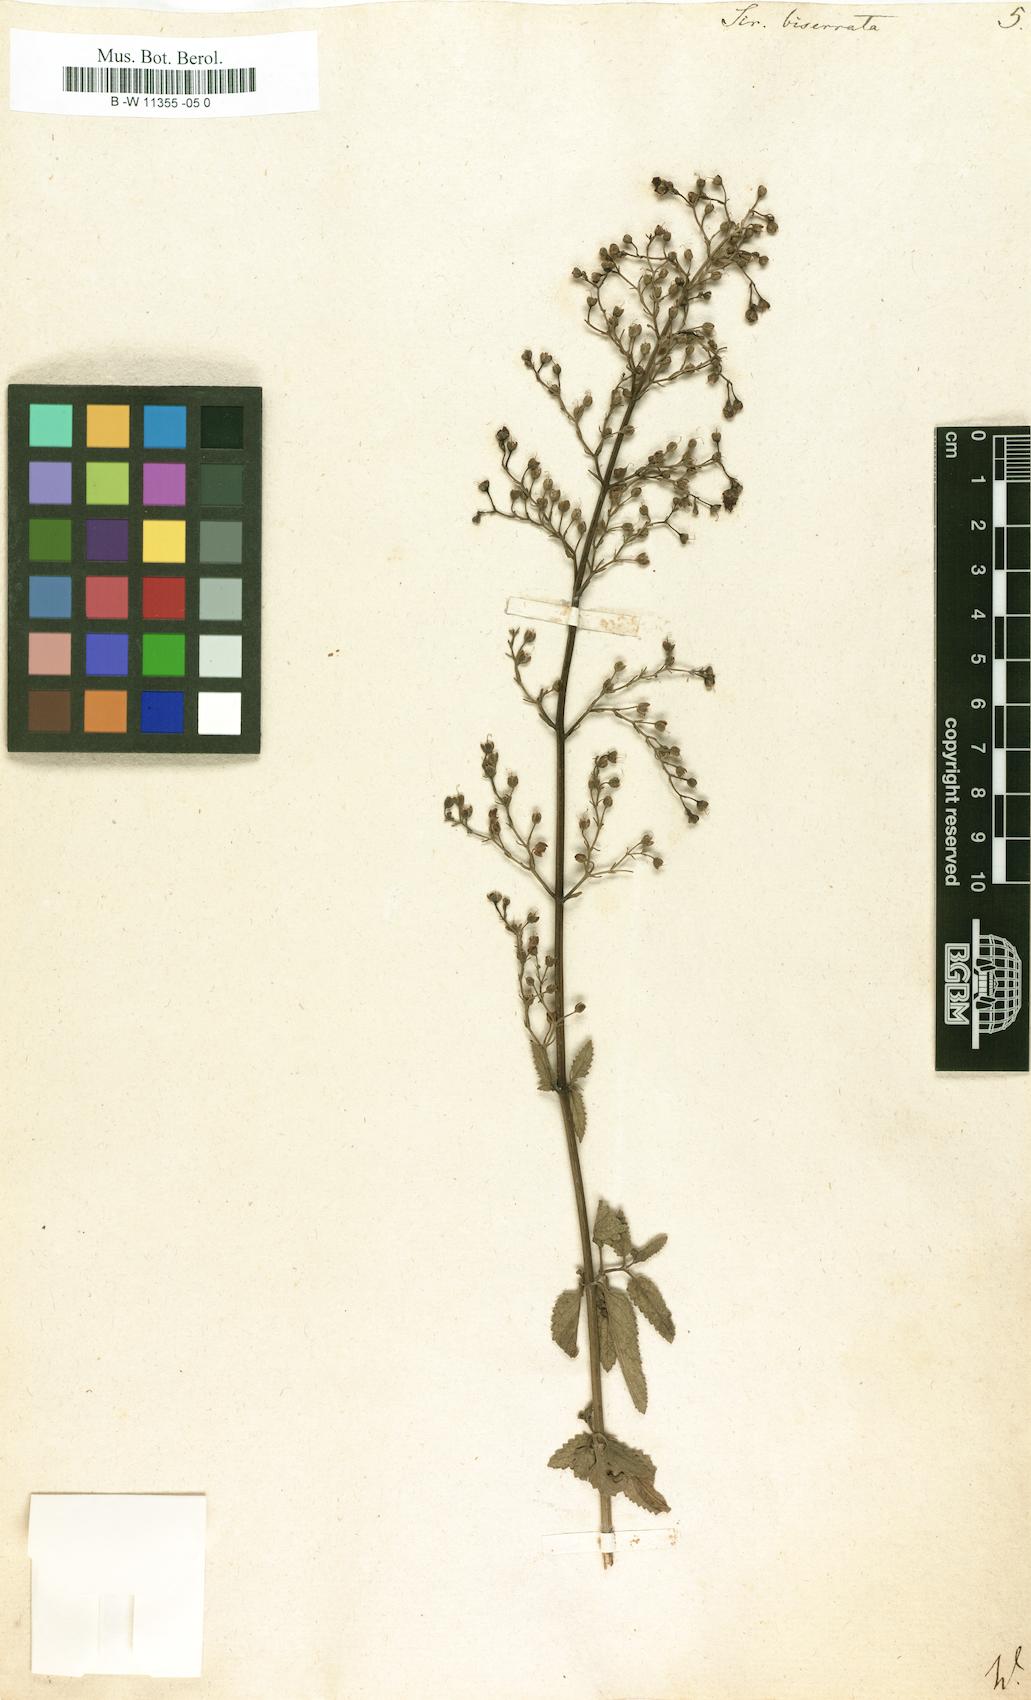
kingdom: Plantae
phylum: Tracheophyta
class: Magnoliopsida
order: Lamiales
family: Scrophulariaceae
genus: Scrophularia
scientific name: Scrophularia scorodonia
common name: Balm-leaved figwort
